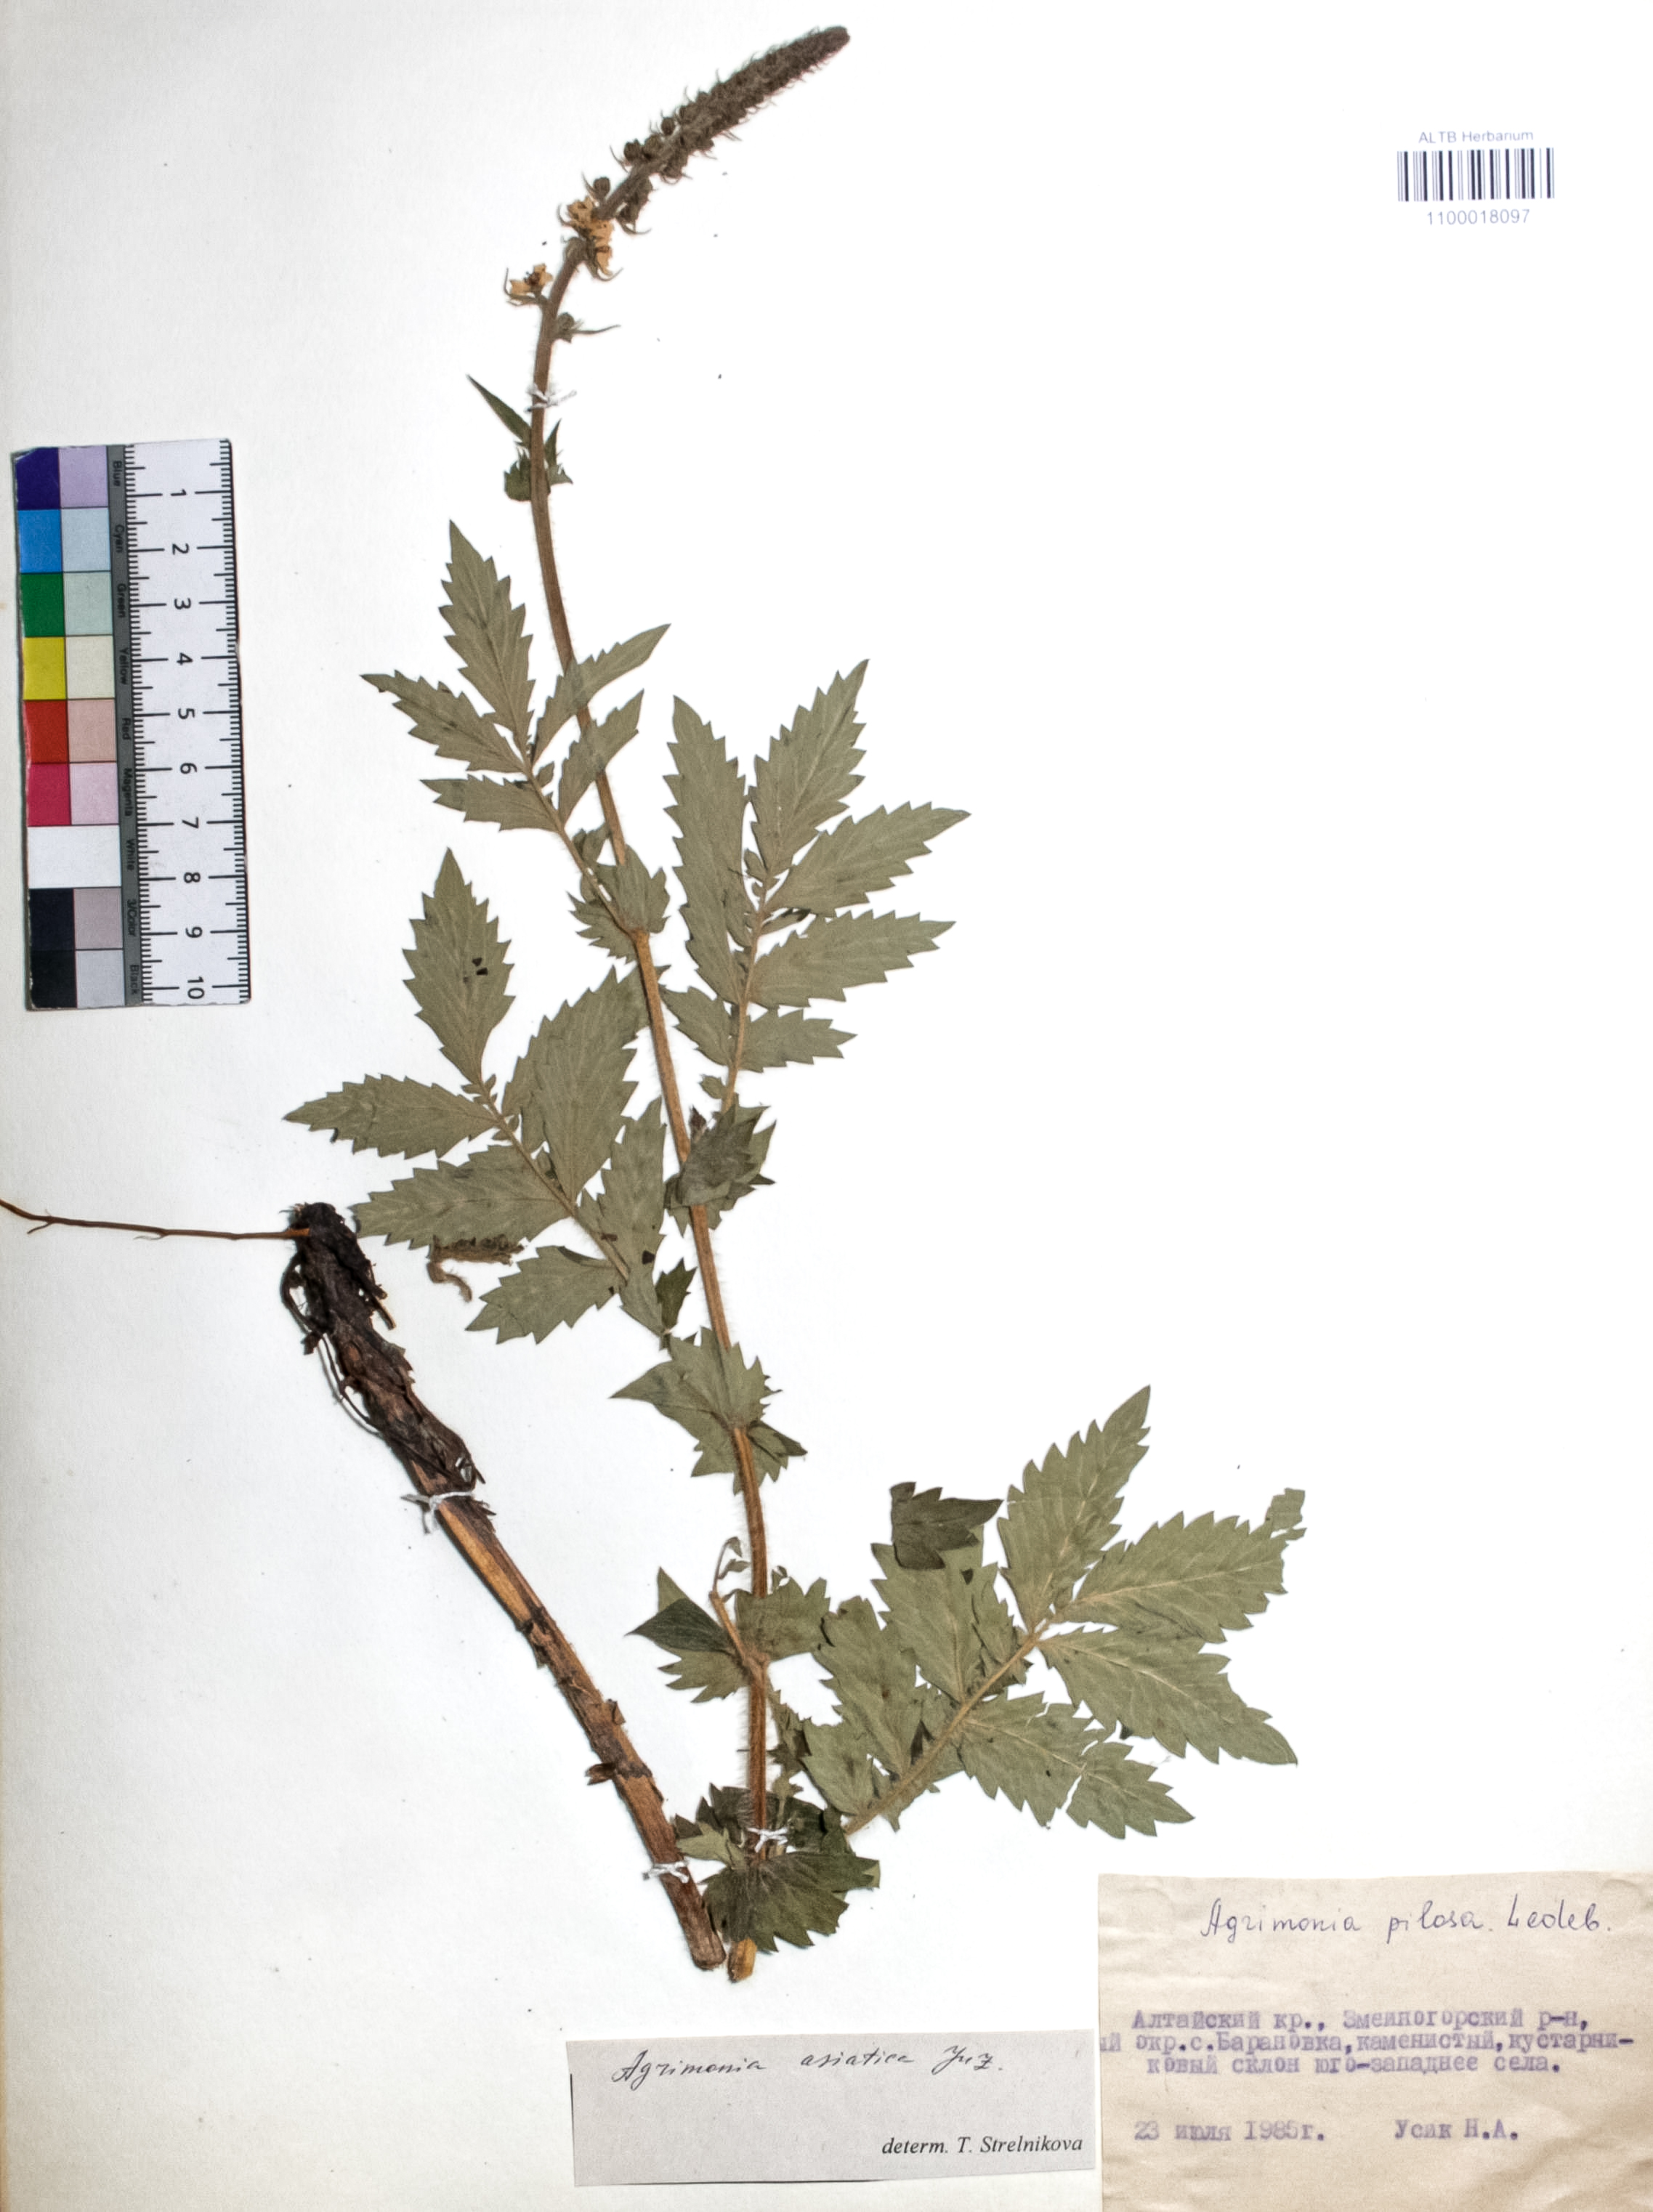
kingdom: Plantae
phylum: Tracheophyta
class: Magnoliopsida
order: Rosales
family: Rosaceae
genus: Agrimonia
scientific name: Agrimonia eupatoria
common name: Agrimony
